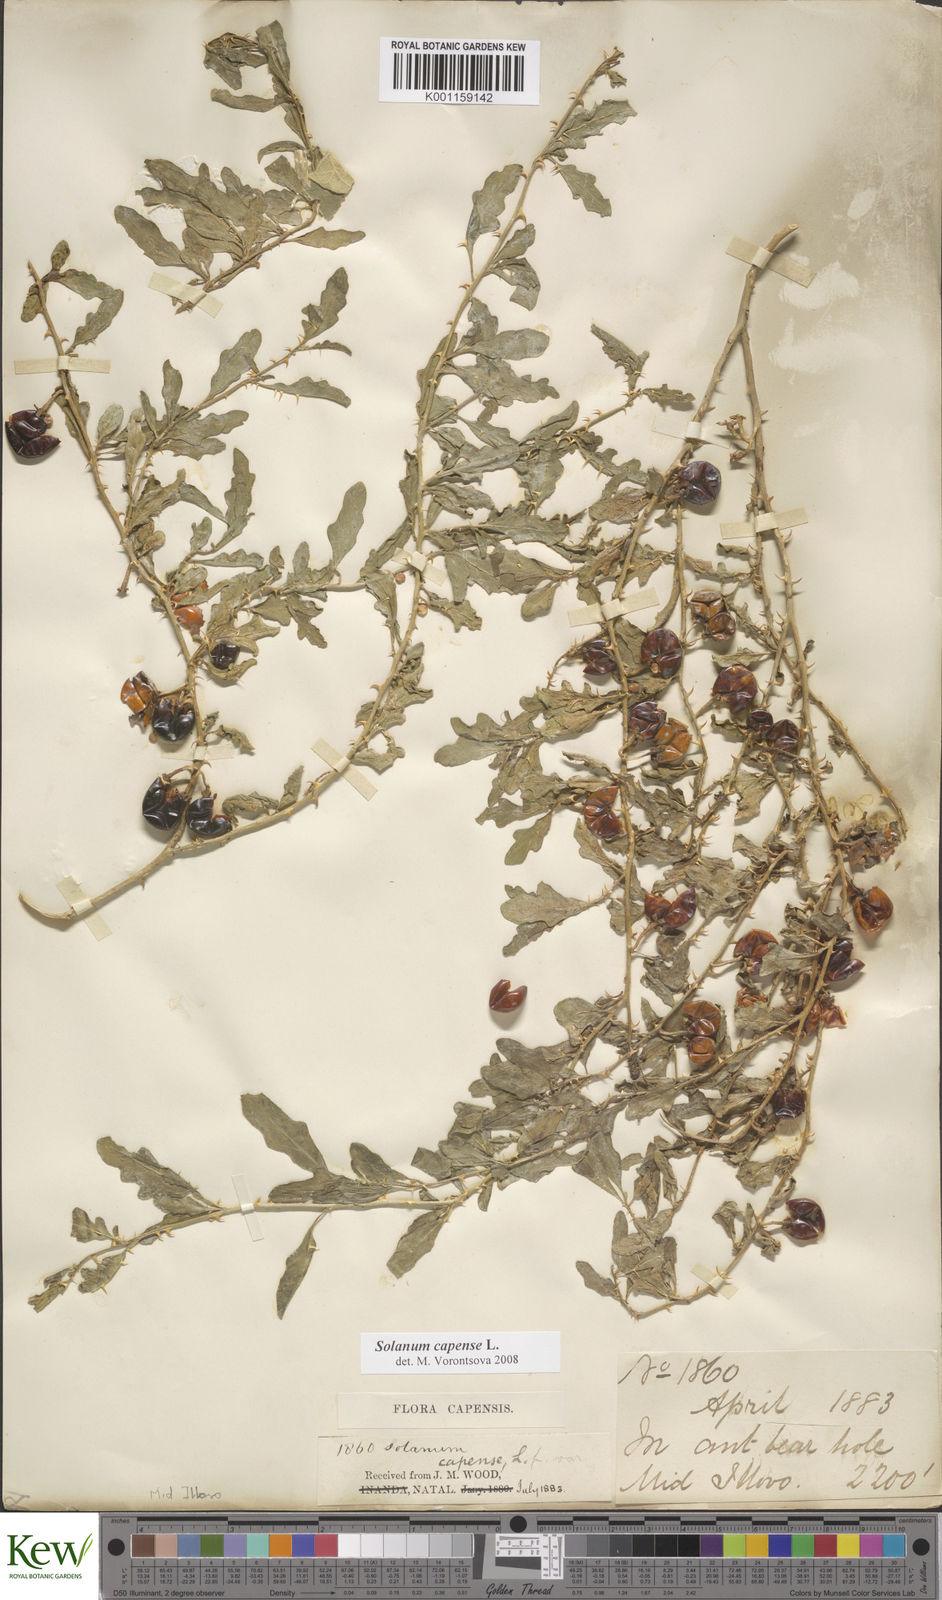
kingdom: Plantae
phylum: Tracheophyta
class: Magnoliopsida
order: Solanales
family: Solanaceae
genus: Solanum
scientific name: Solanum capense
